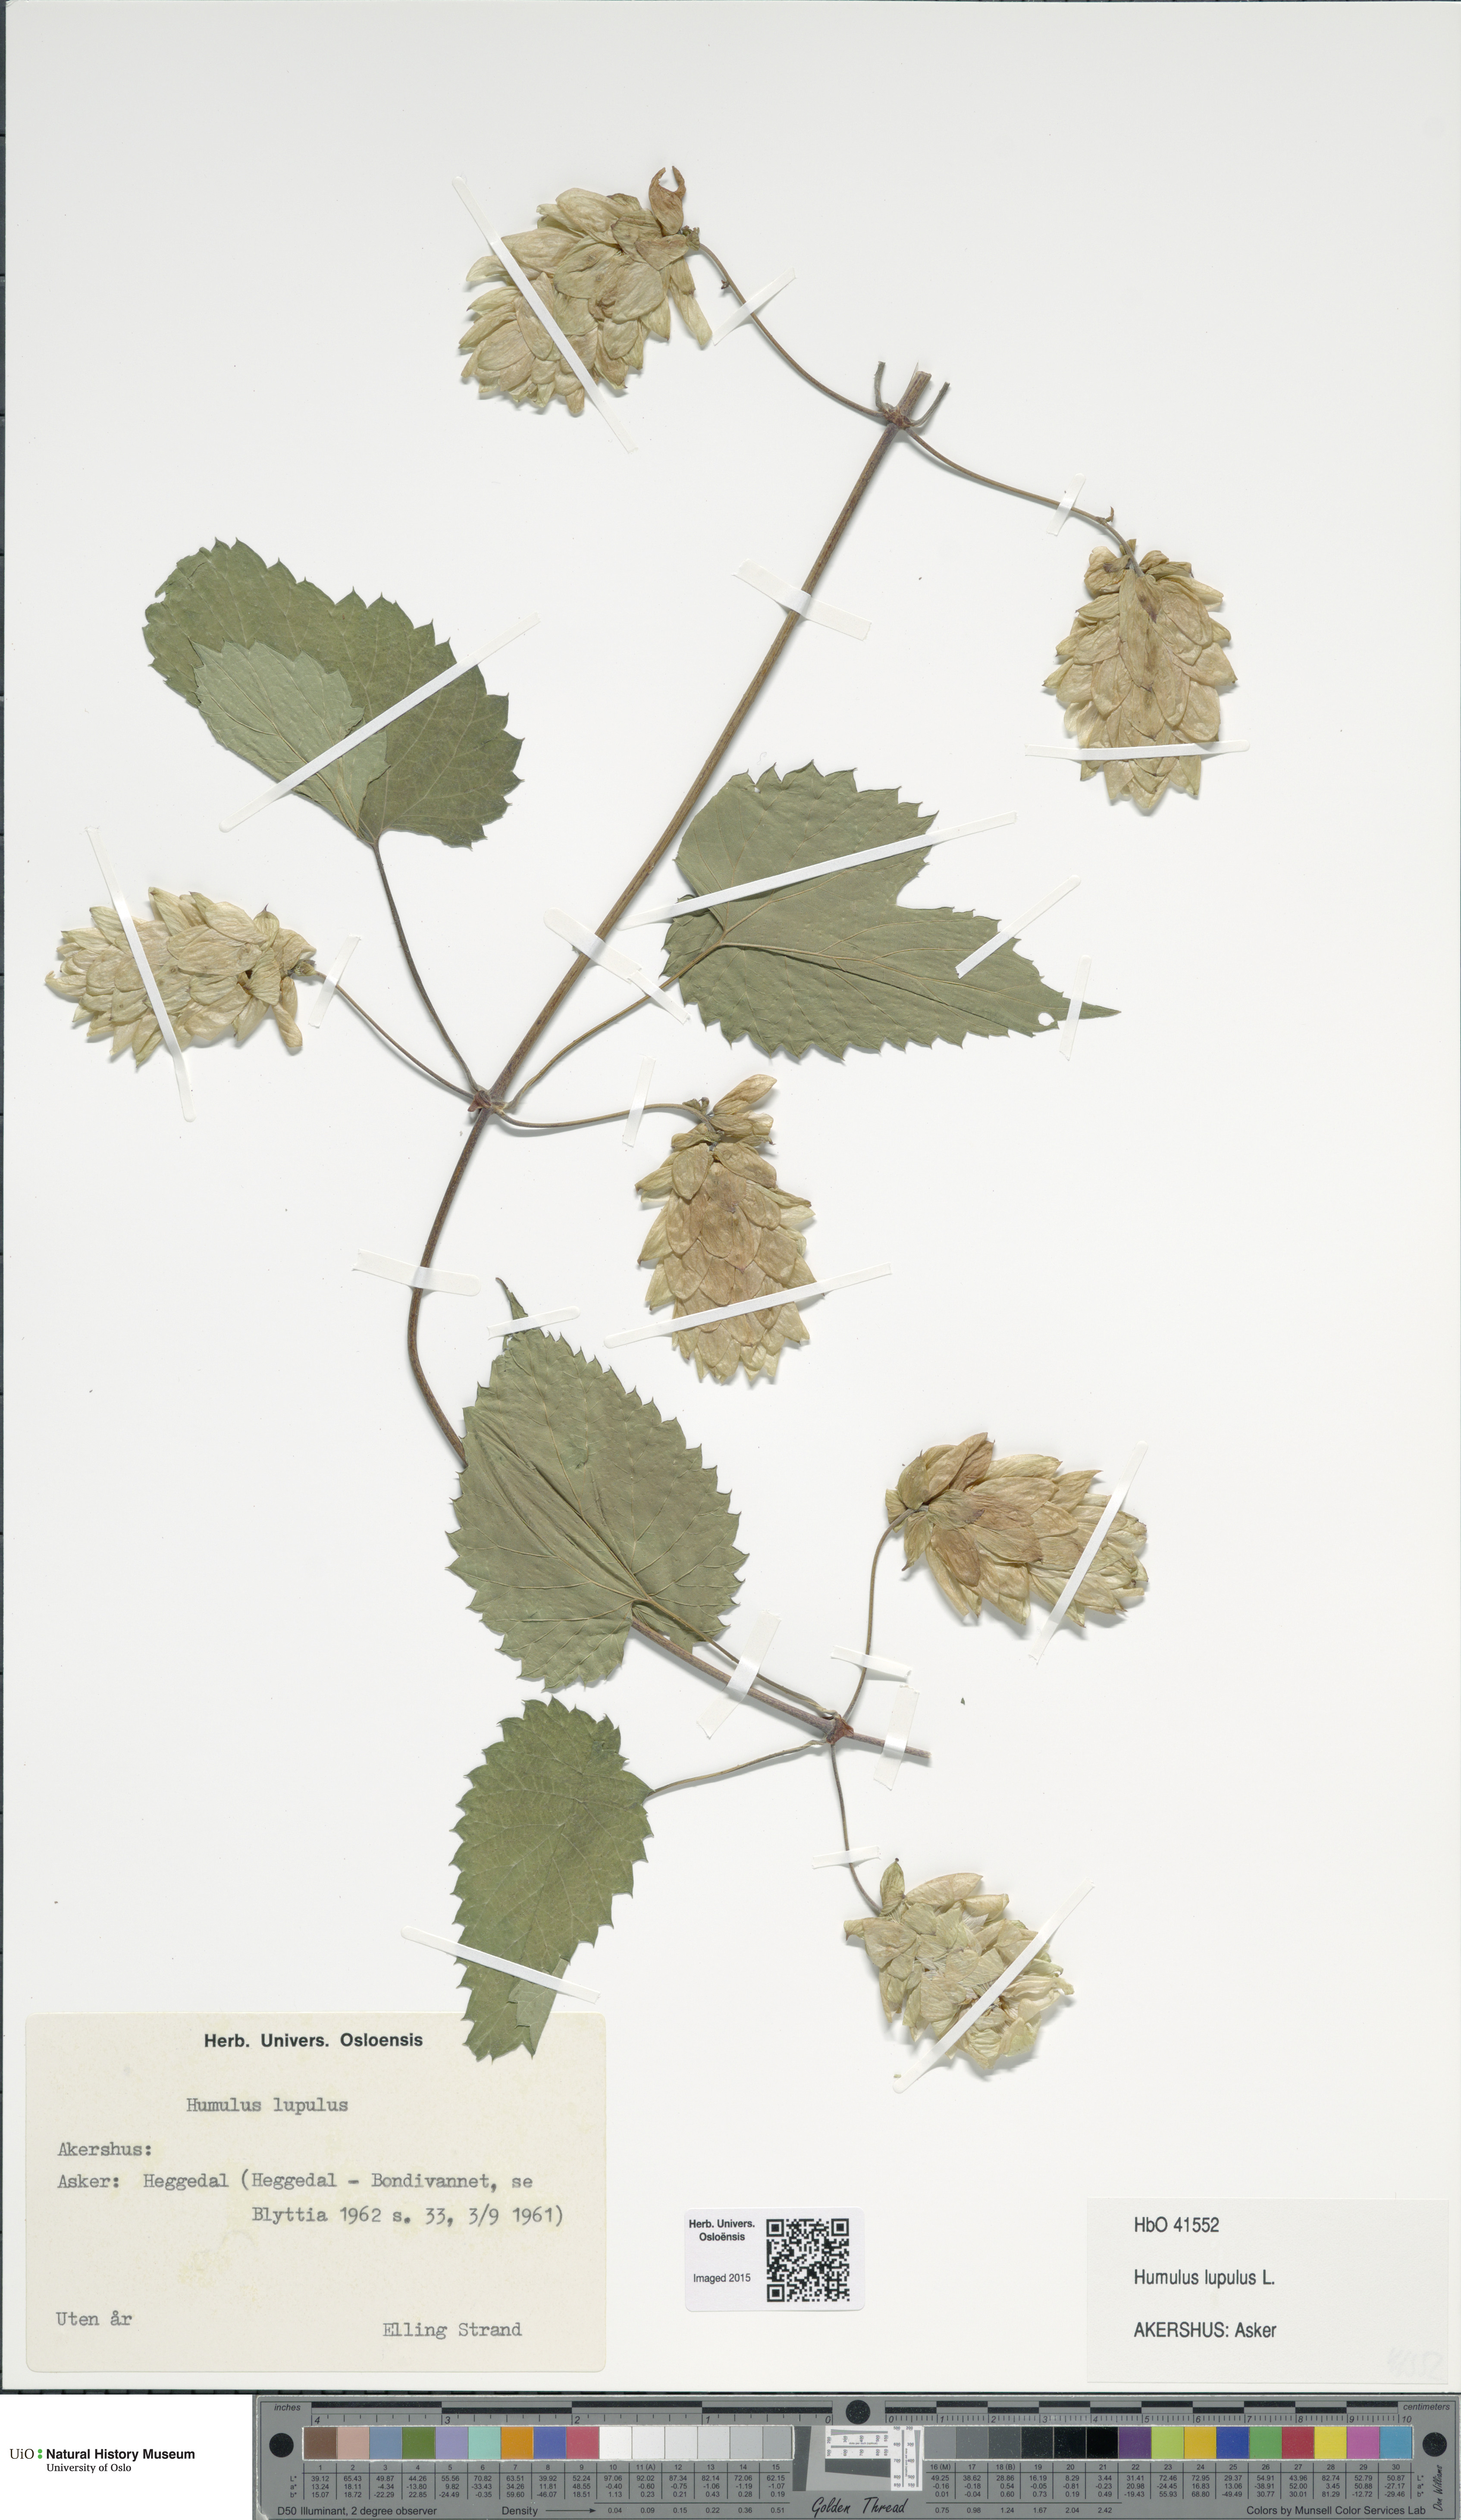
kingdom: Plantae
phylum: Tracheophyta
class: Magnoliopsida
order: Rosales
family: Cannabaceae
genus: Humulus
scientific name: Humulus lupulus
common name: Hop
